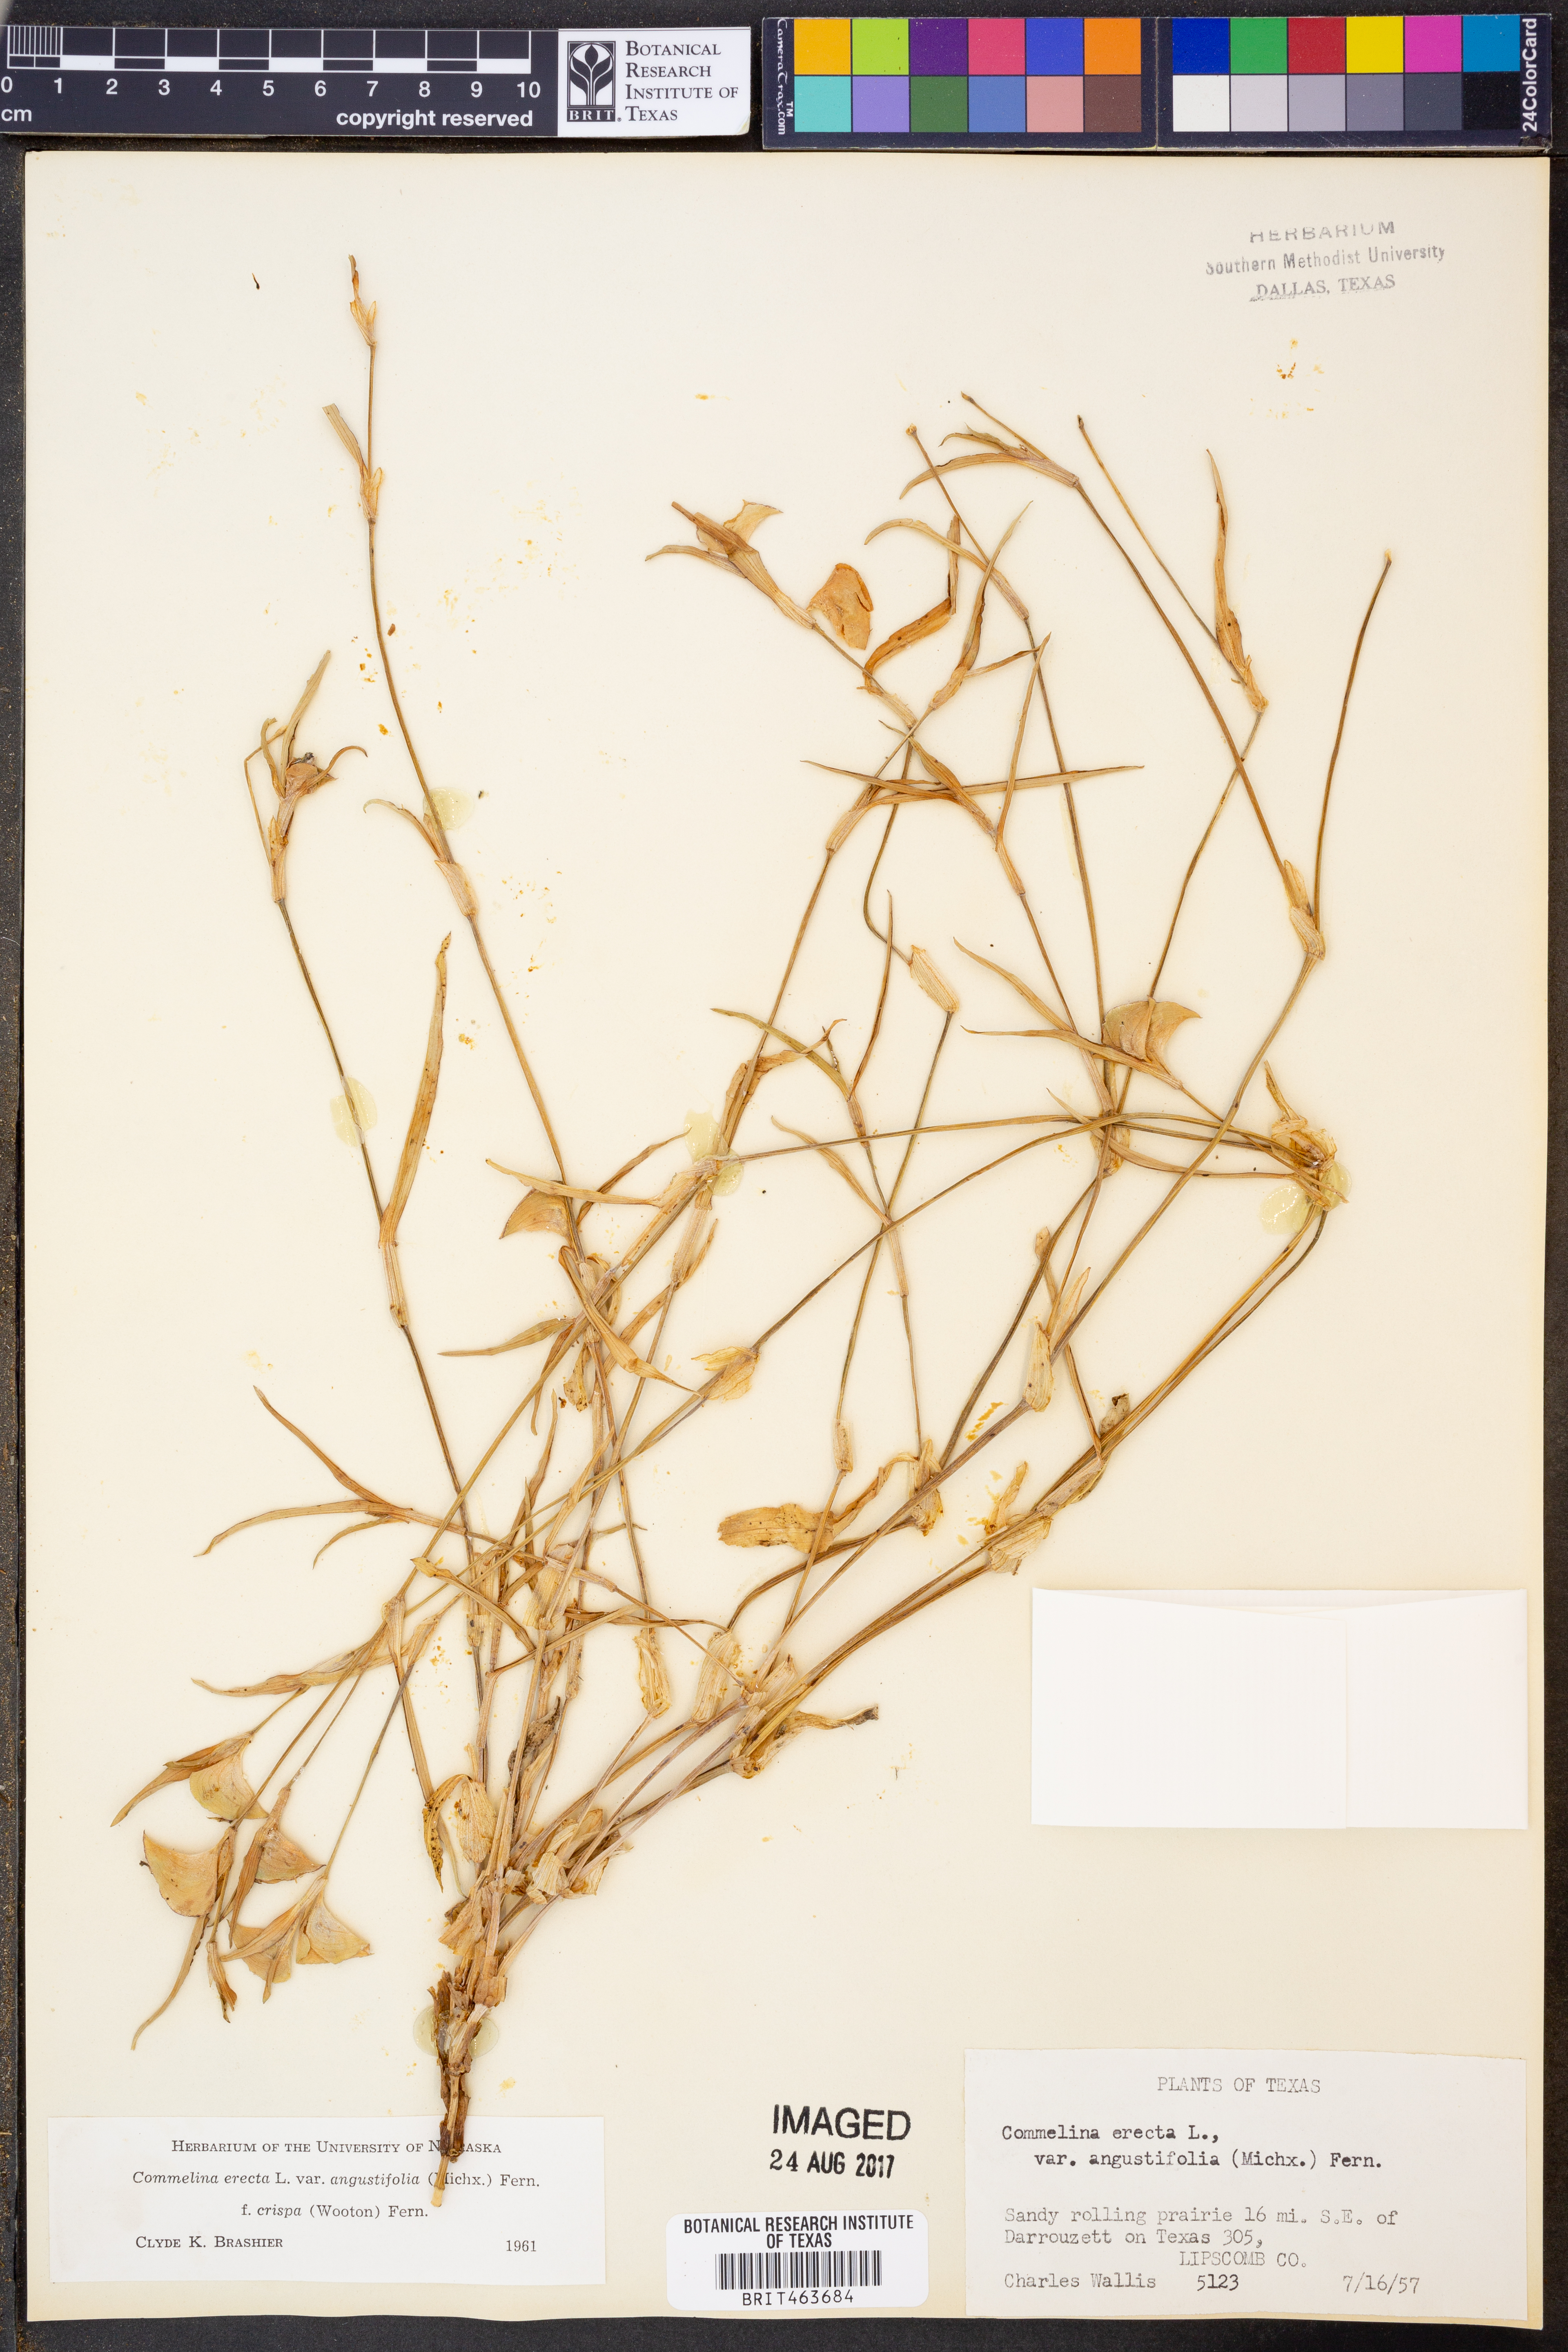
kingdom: Plantae
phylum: Tracheophyta
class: Liliopsida
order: Commelinales
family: Commelinaceae
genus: Commelina
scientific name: Commelina erecta
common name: Blousel blommetjie
